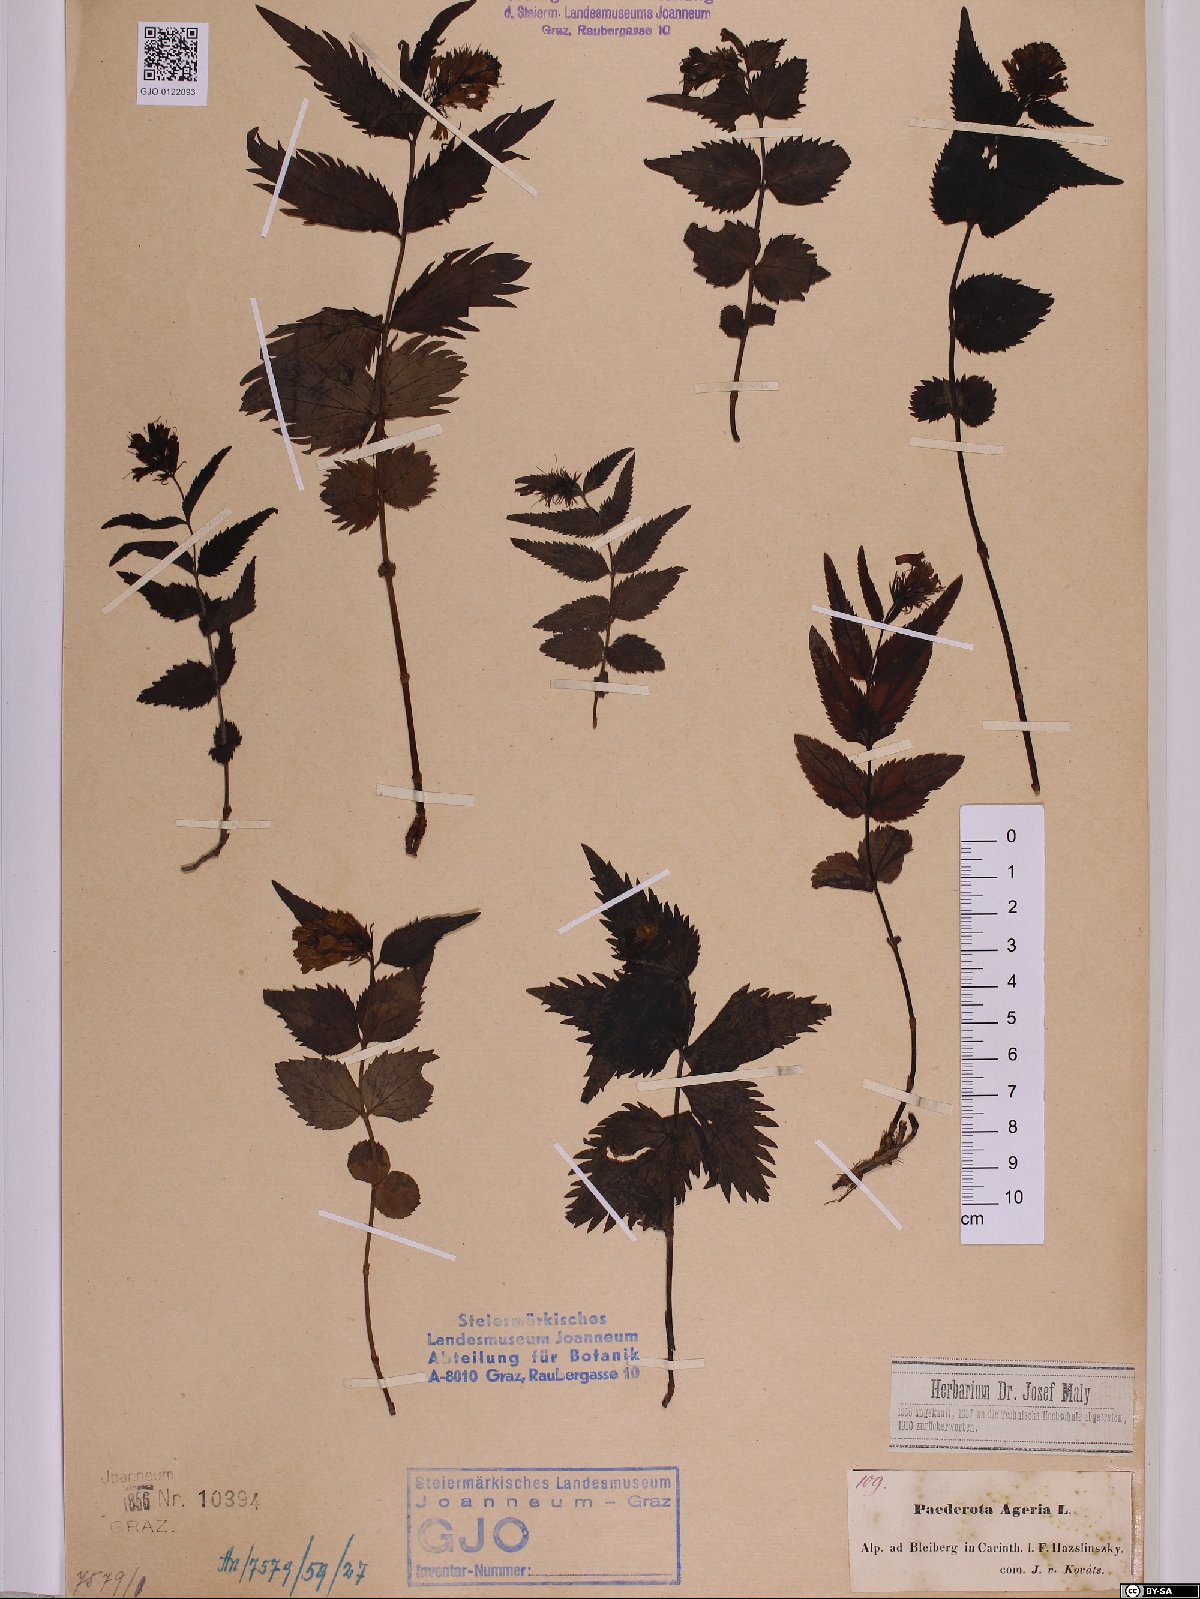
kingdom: Plantae
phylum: Tracheophyta
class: Magnoliopsida
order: Lamiales
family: Plantaginaceae
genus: Paederota
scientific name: Paederota lutea
